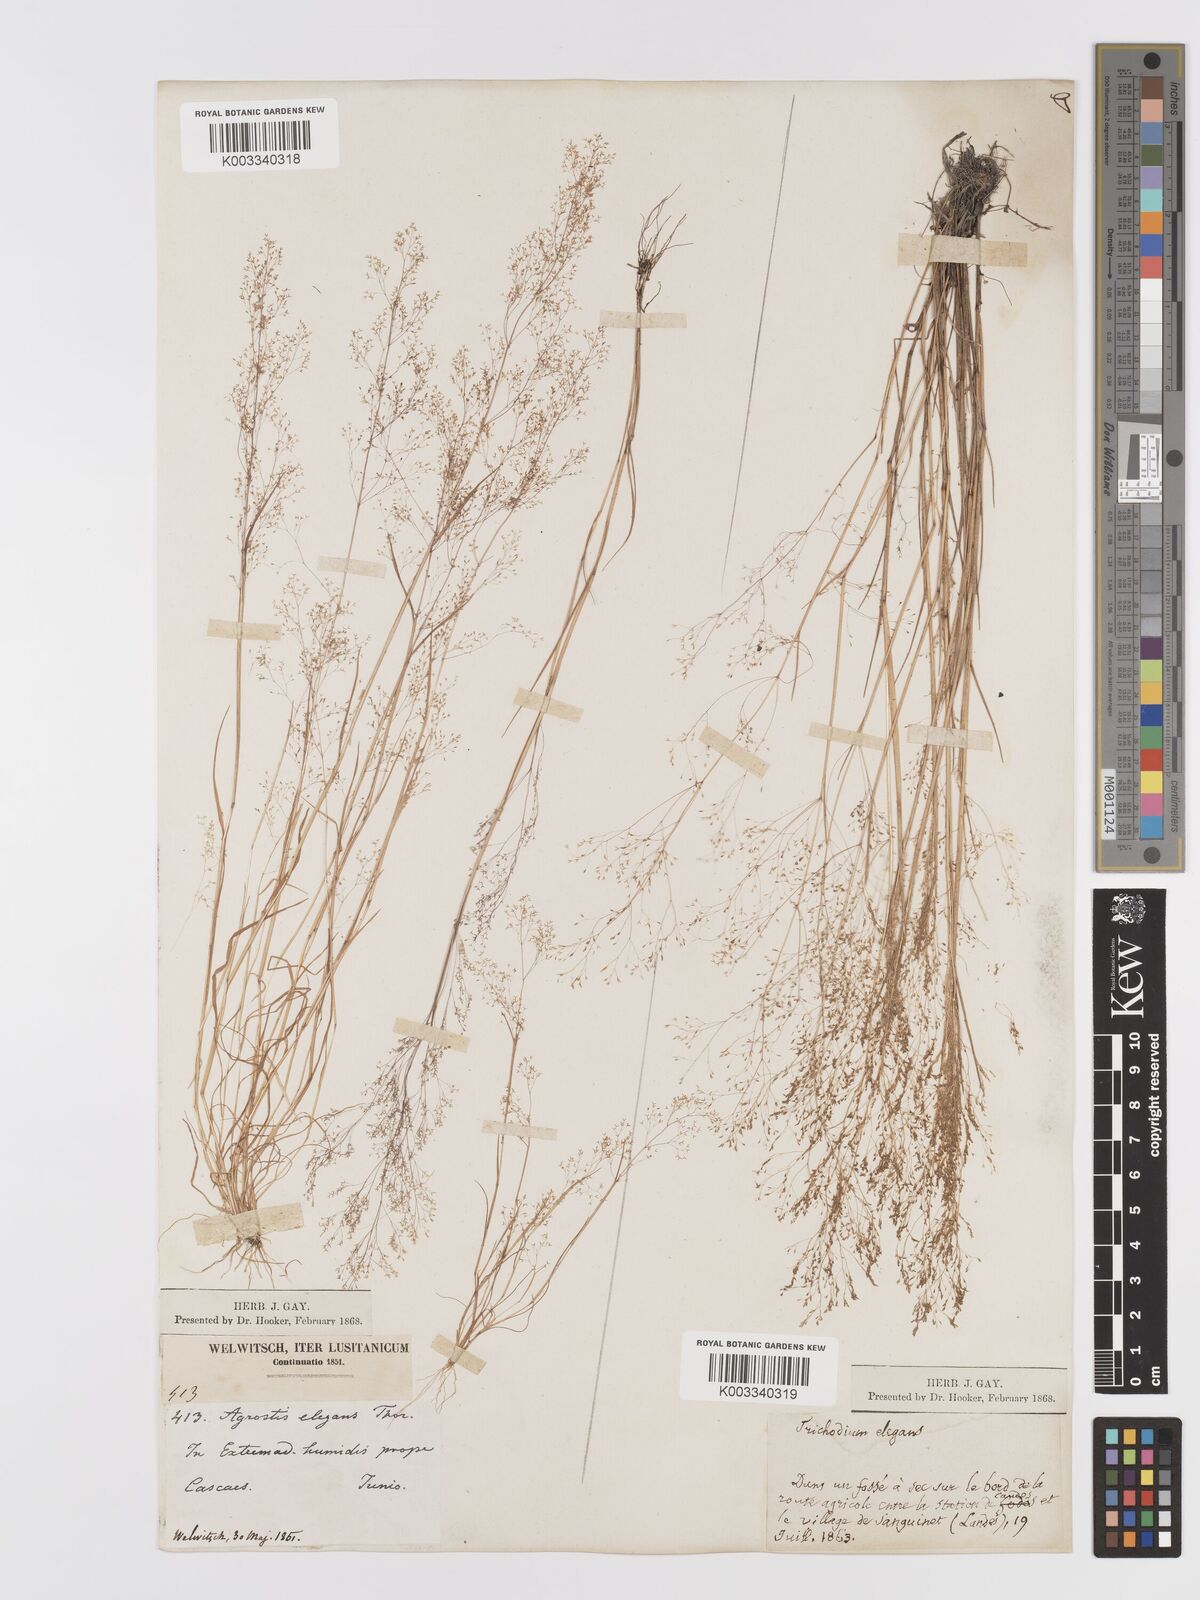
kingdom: Plantae
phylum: Tracheophyta
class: Liliopsida
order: Poales
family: Poaceae
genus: Agrostis
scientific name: Agrostis tenerrima
